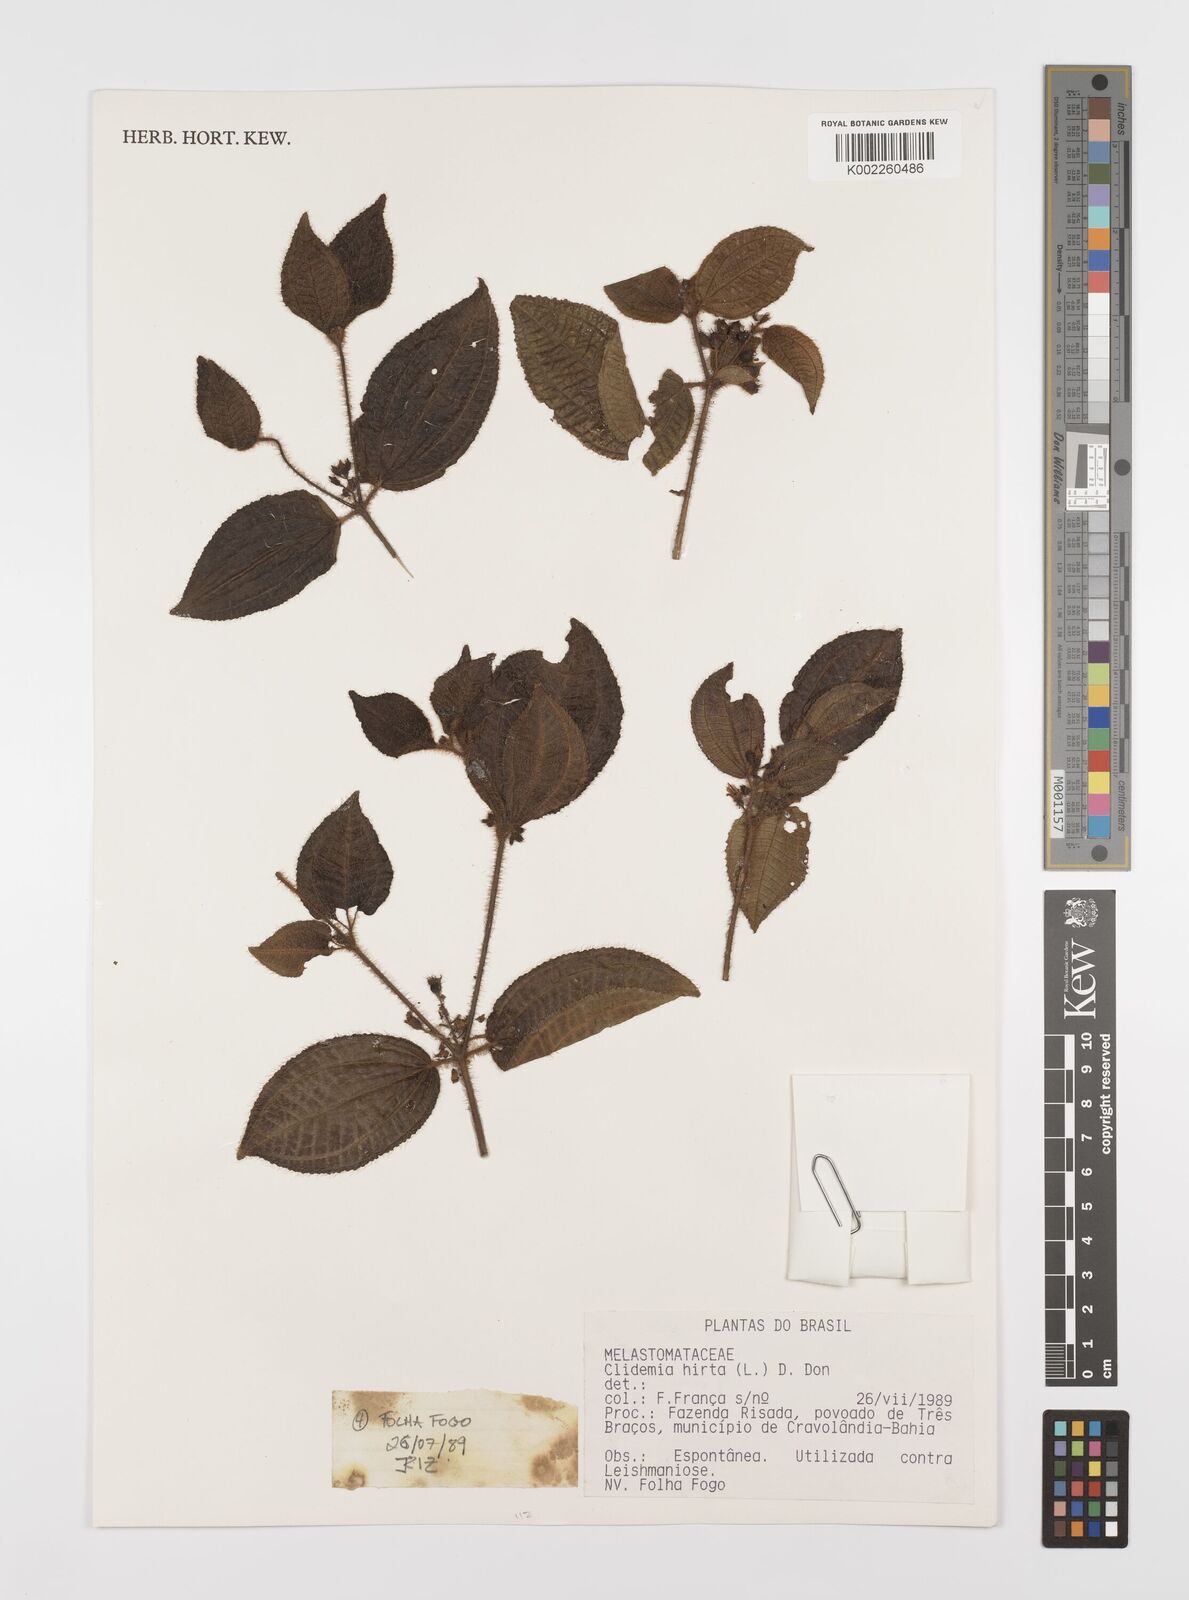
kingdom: Plantae
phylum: Tracheophyta
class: Magnoliopsida
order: Myrtales
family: Melastomataceae
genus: Miconia
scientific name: Miconia crenata
